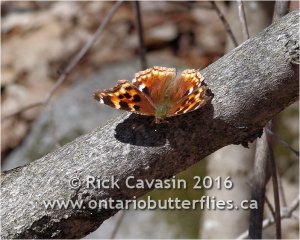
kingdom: Animalia
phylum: Arthropoda
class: Insecta
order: Lepidoptera
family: Nymphalidae
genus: Polygonia
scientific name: Polygonia vaualbum
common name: Compton Tortoiseshell
